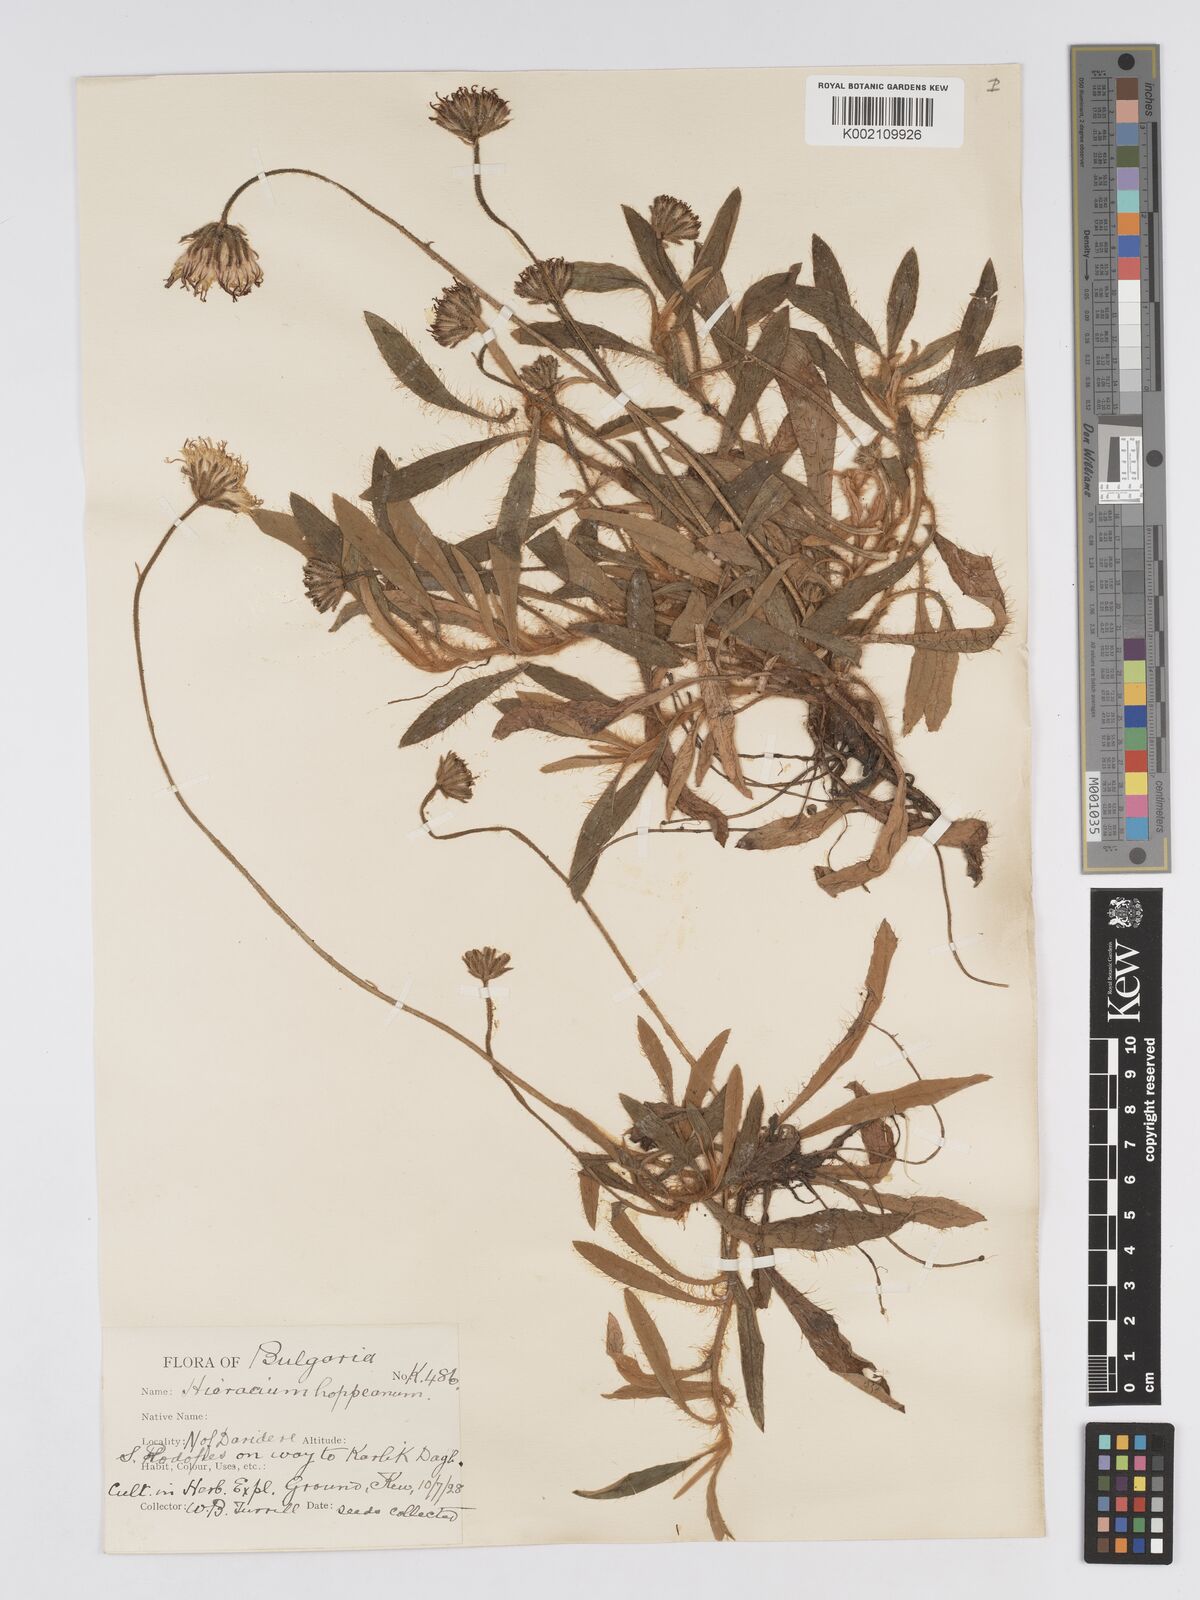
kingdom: Plantae
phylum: Tracheophyta
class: Magnoliopsida
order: Asterales
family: Asteraceae
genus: Pilosella
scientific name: Pilosella hoppeana
